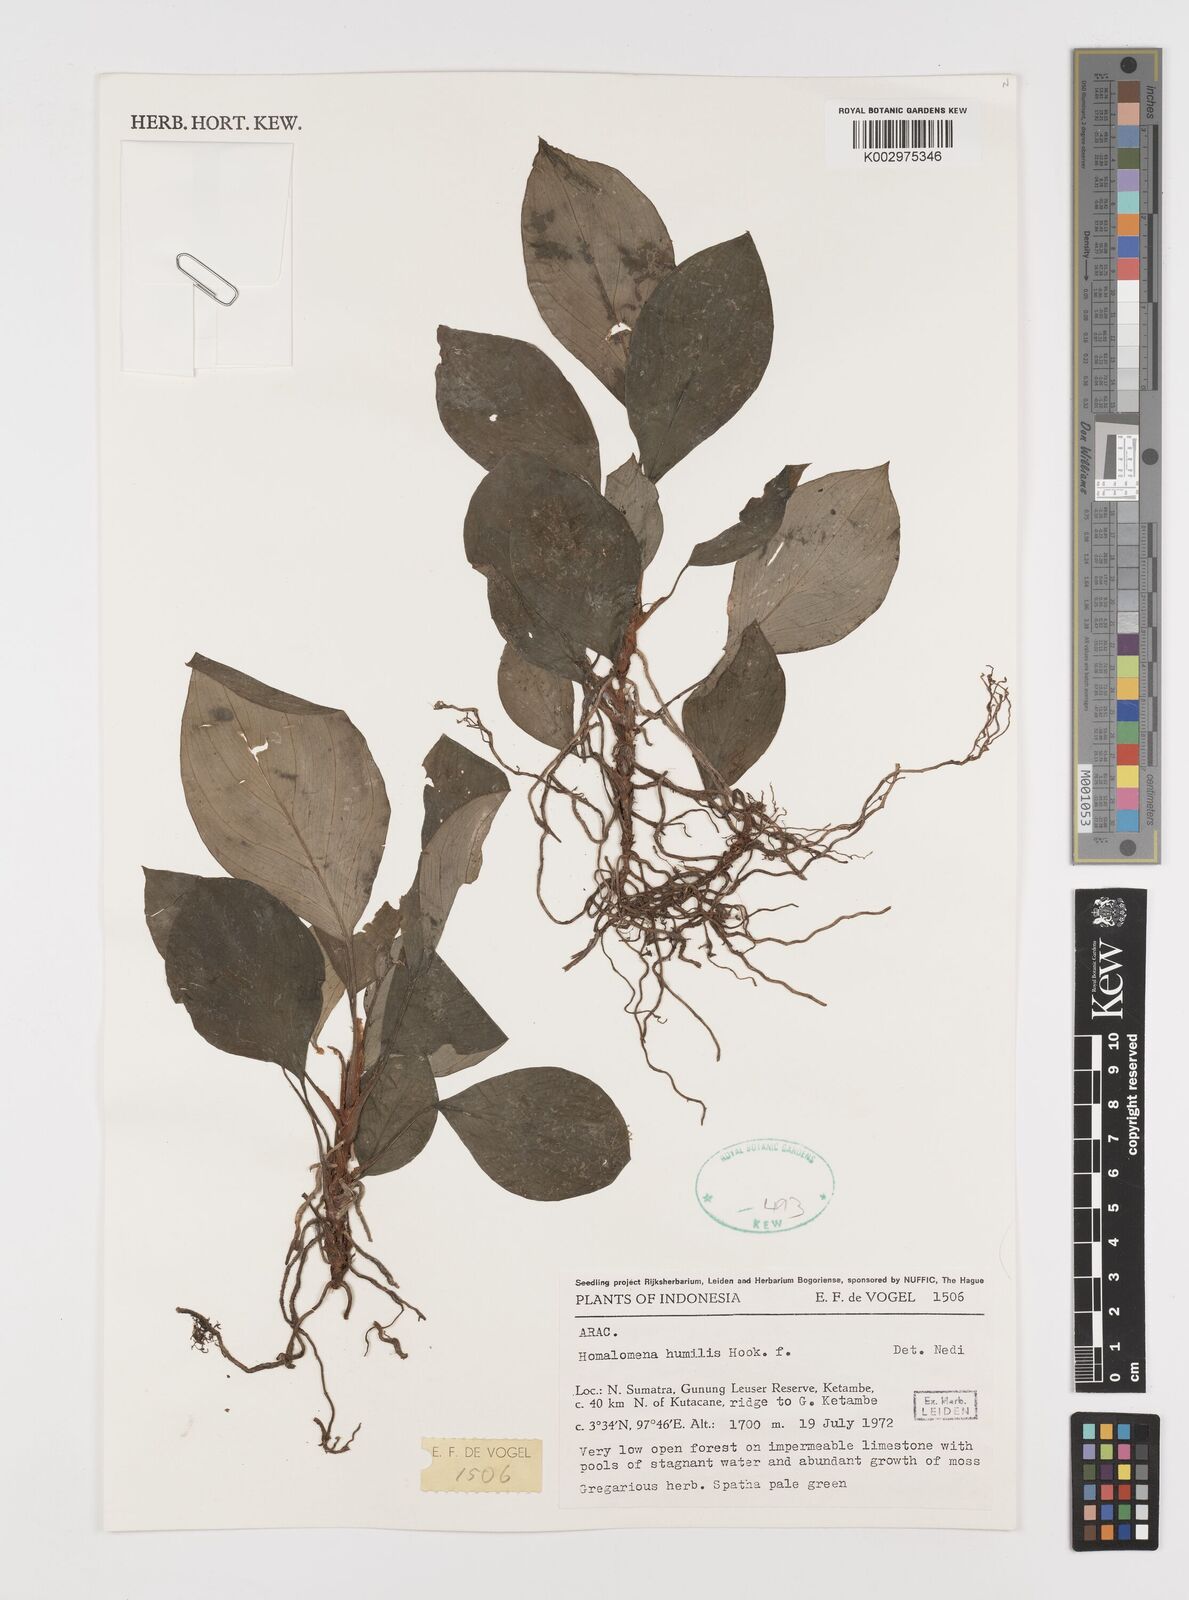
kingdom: Plantae
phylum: Tracheophyta
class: Liliopsida
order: Alismatales
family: Araceae
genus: Homalomena
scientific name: Homalomena humilis
